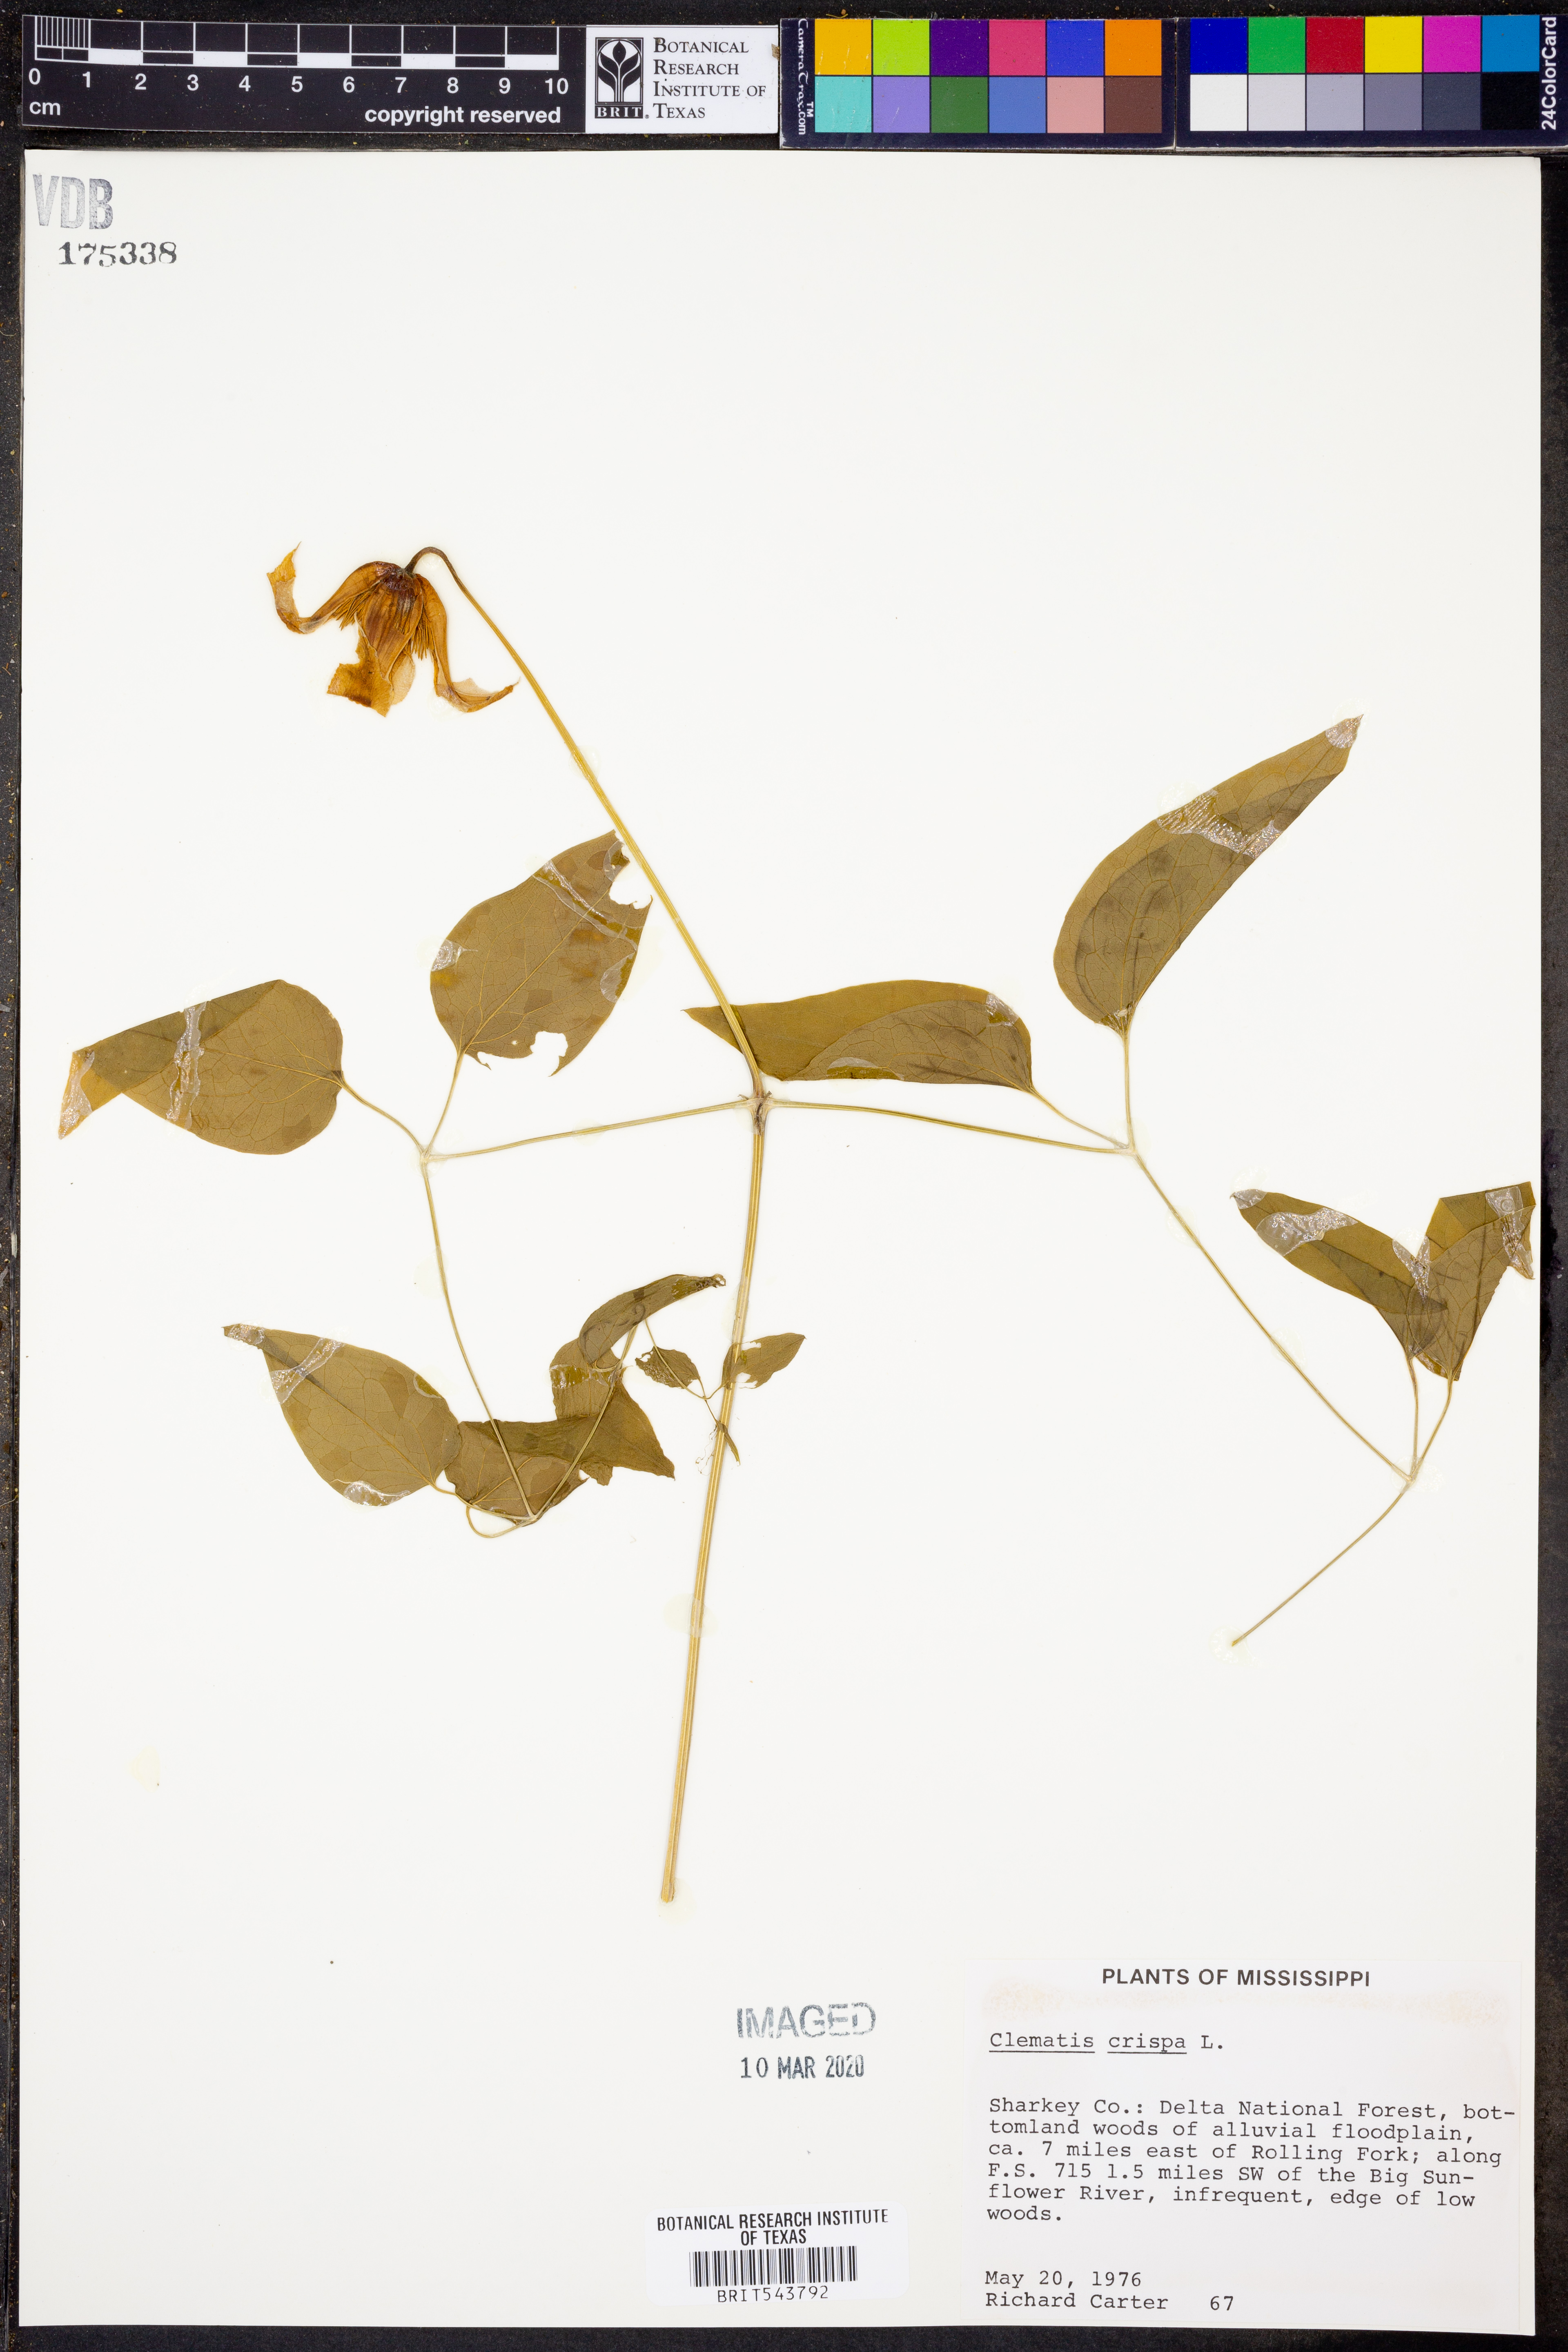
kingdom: Plantae
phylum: Tracheophyta
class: Magnoliopsida
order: Ranunculales
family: Ranunculaceae
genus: Clematis
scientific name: Clematis crispa
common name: Curly clematis
